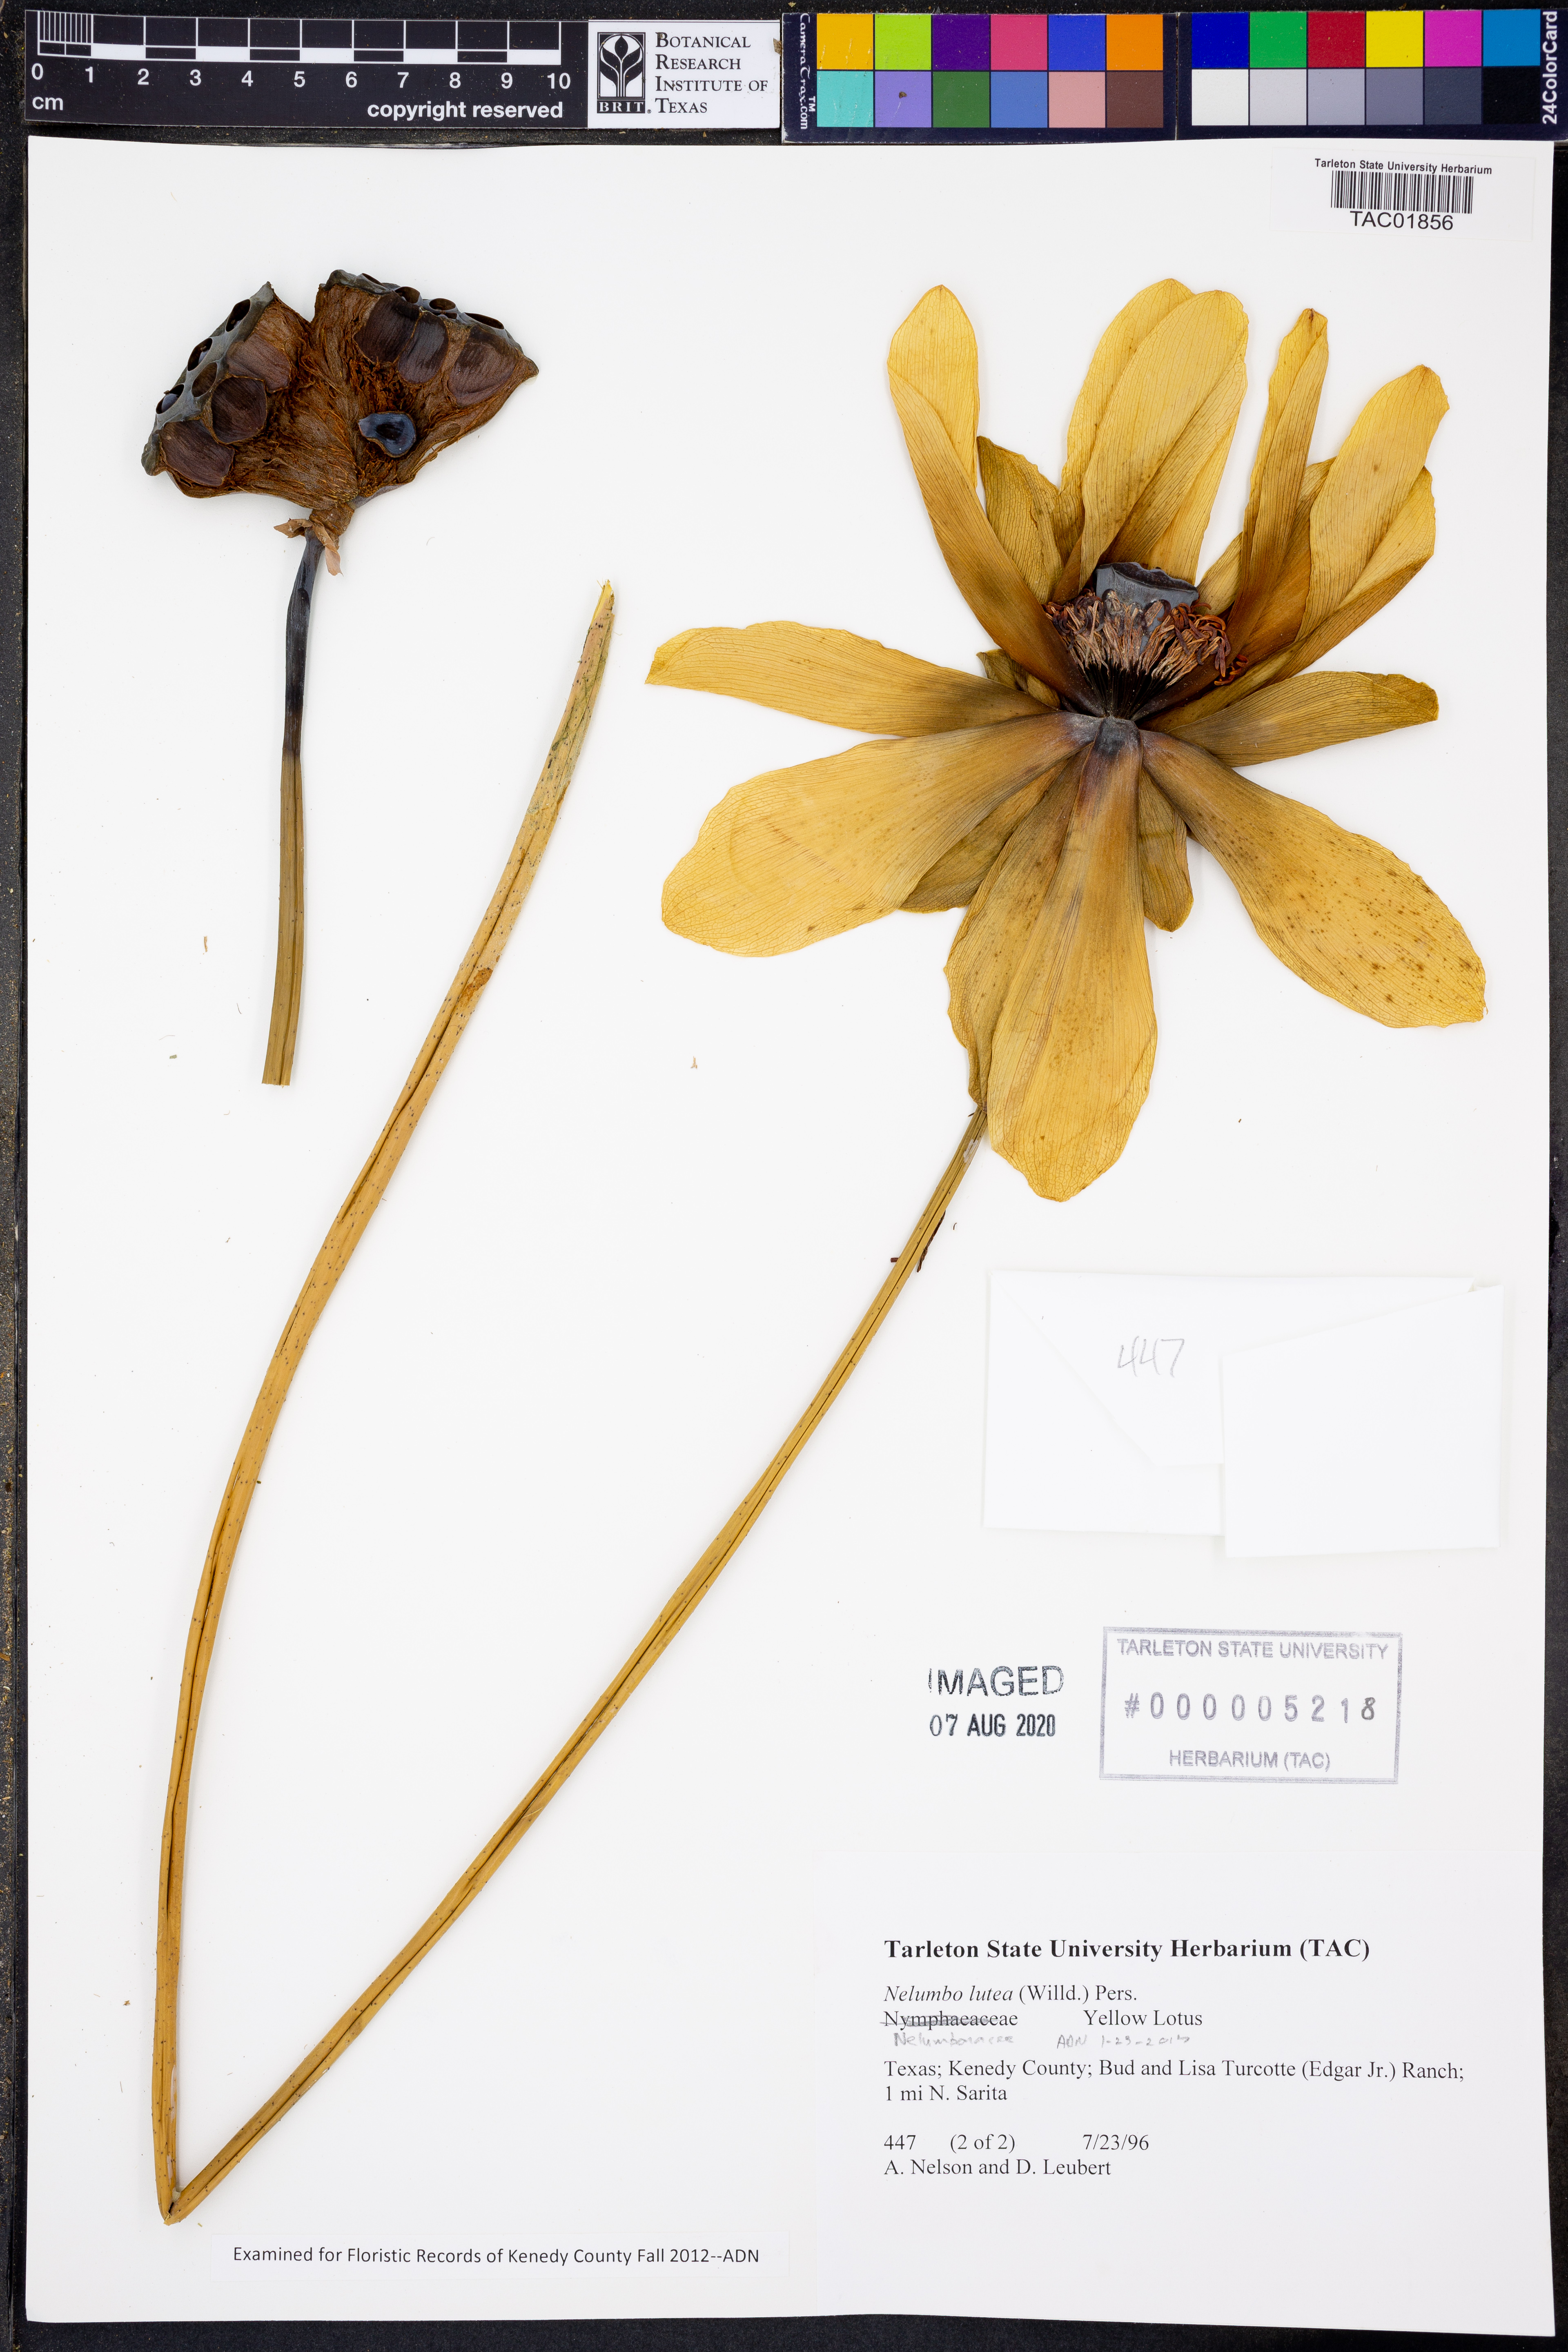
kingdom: Plantae
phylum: Tracheophyta
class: Magnoliopsida
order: Proteales
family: Nelumbonaceae
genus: Nelumbo
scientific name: Nelumbo lutea
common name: American lotus
